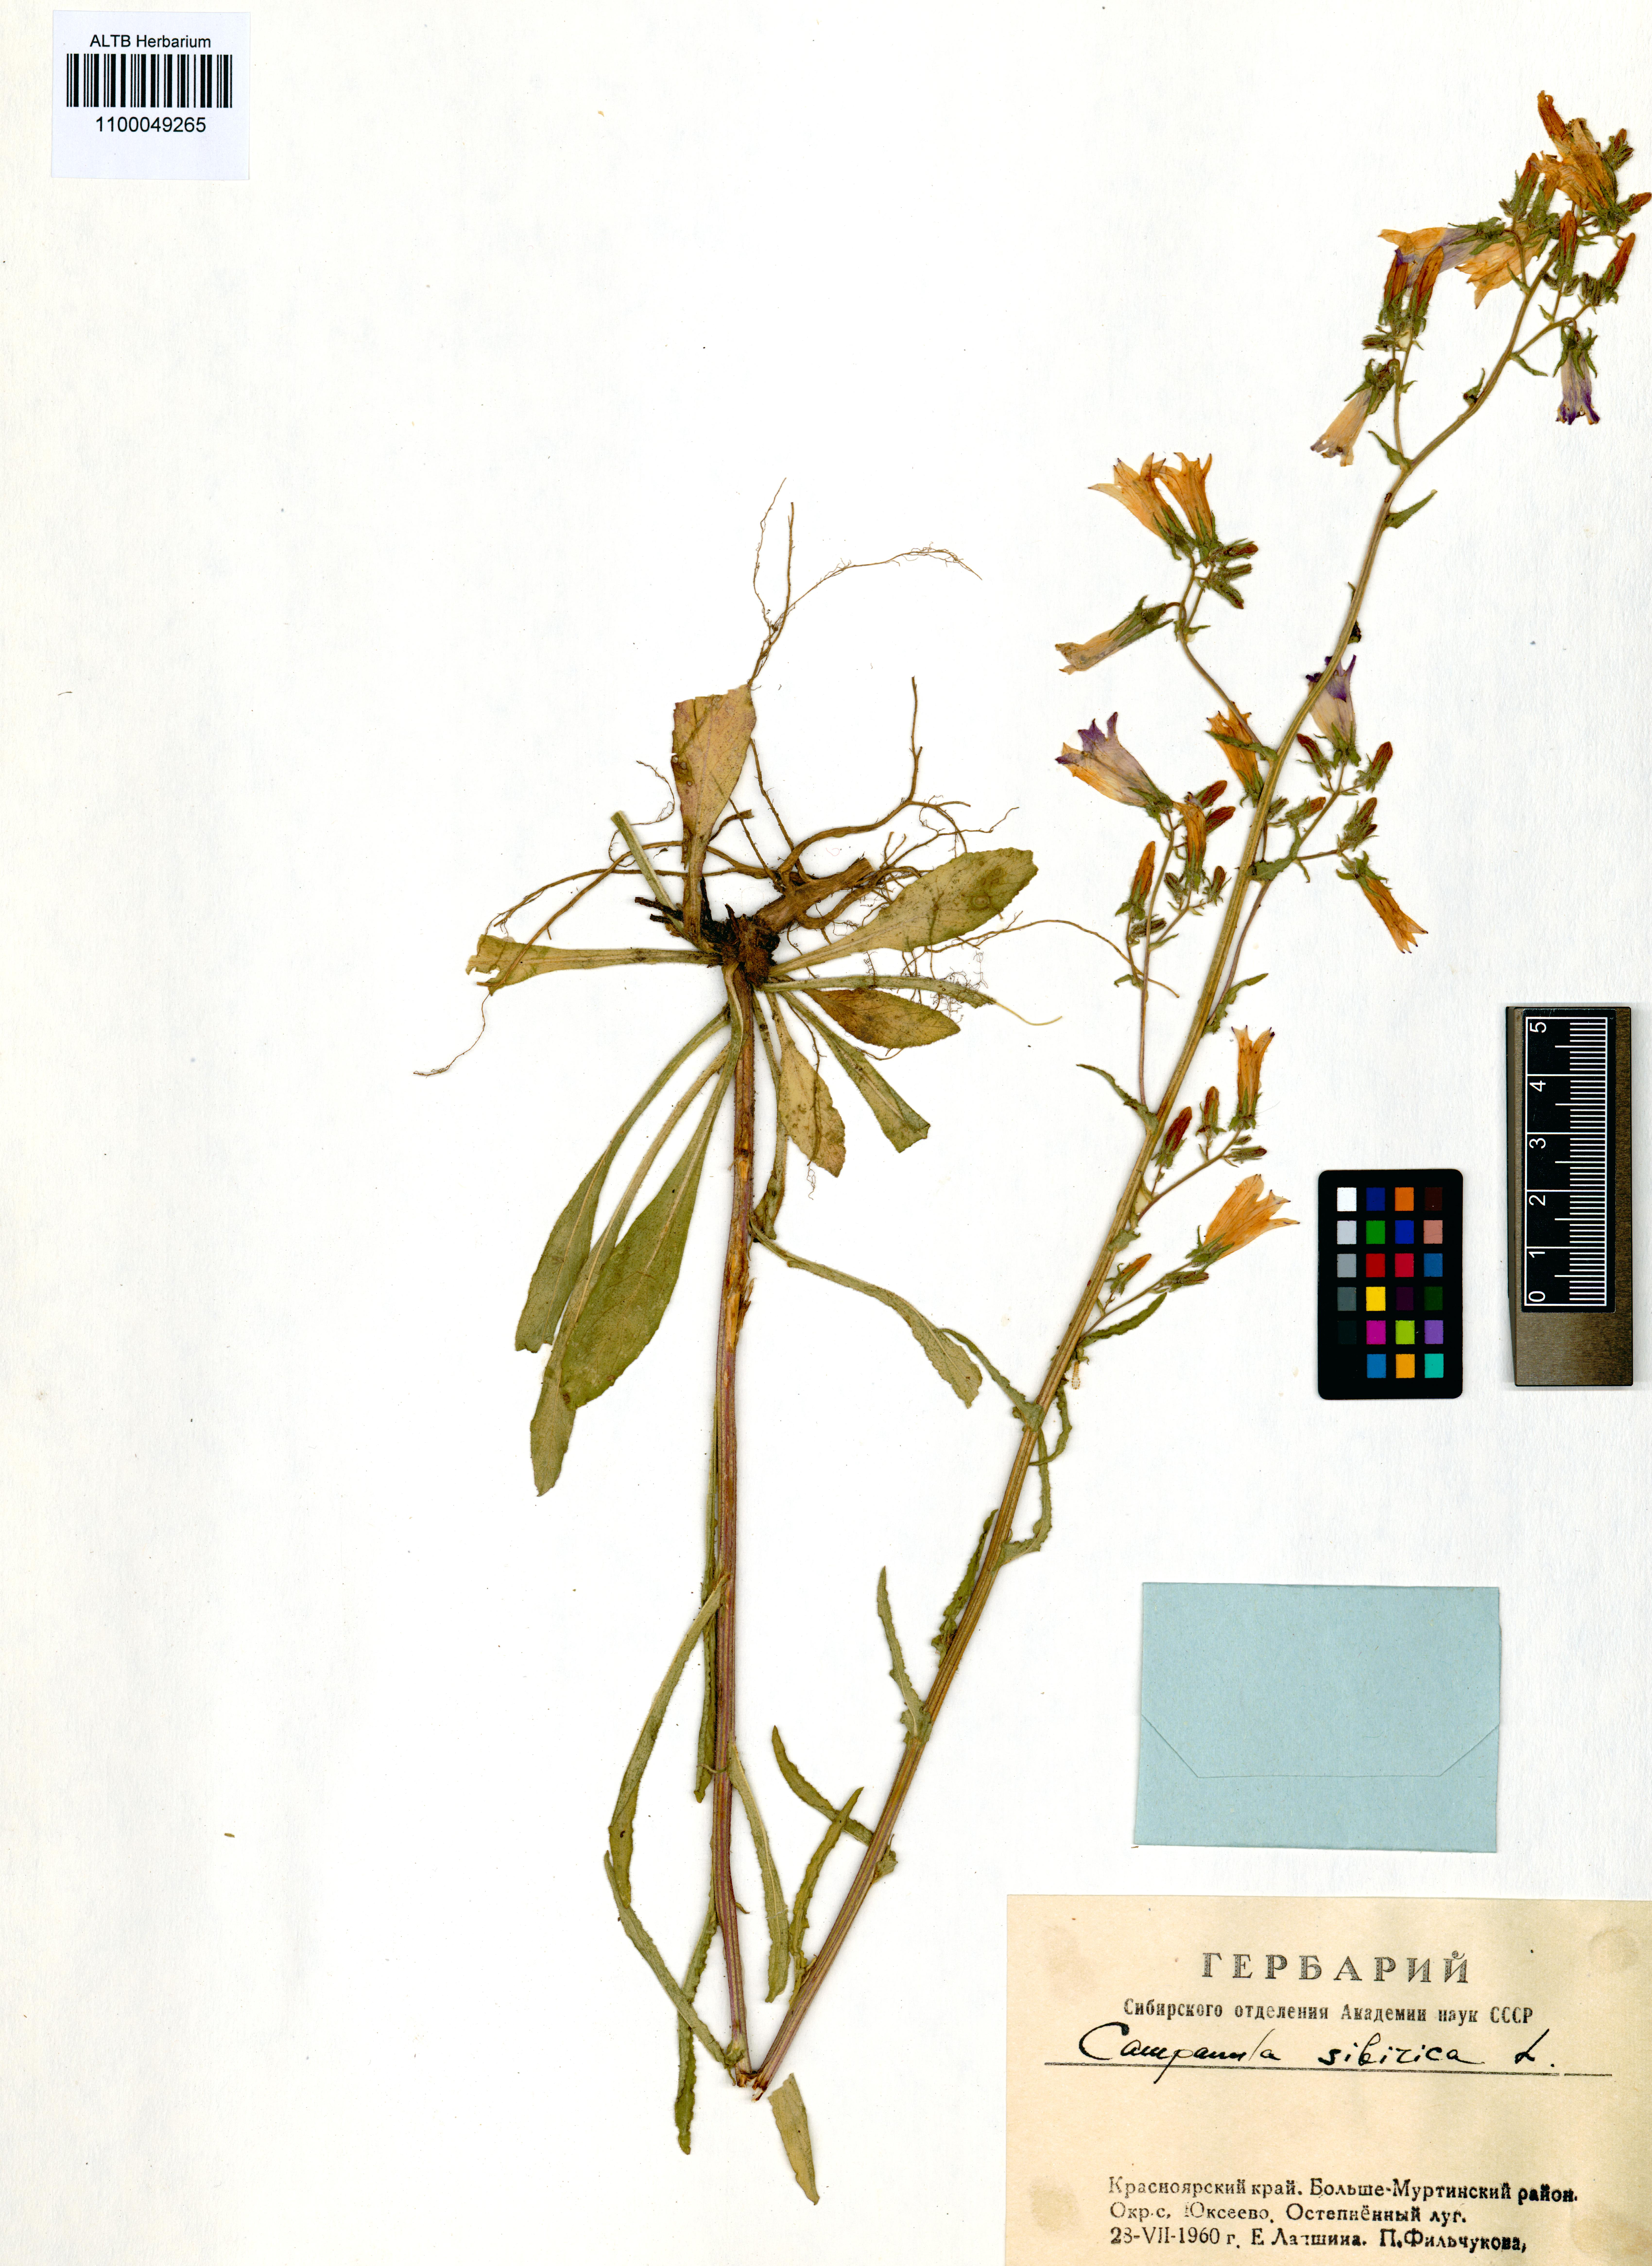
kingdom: Plantae
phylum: Tracheophyta
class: Magnoliopsida
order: Asterales
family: Campanulaceae
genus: Campanula
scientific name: Campanula sibirica
